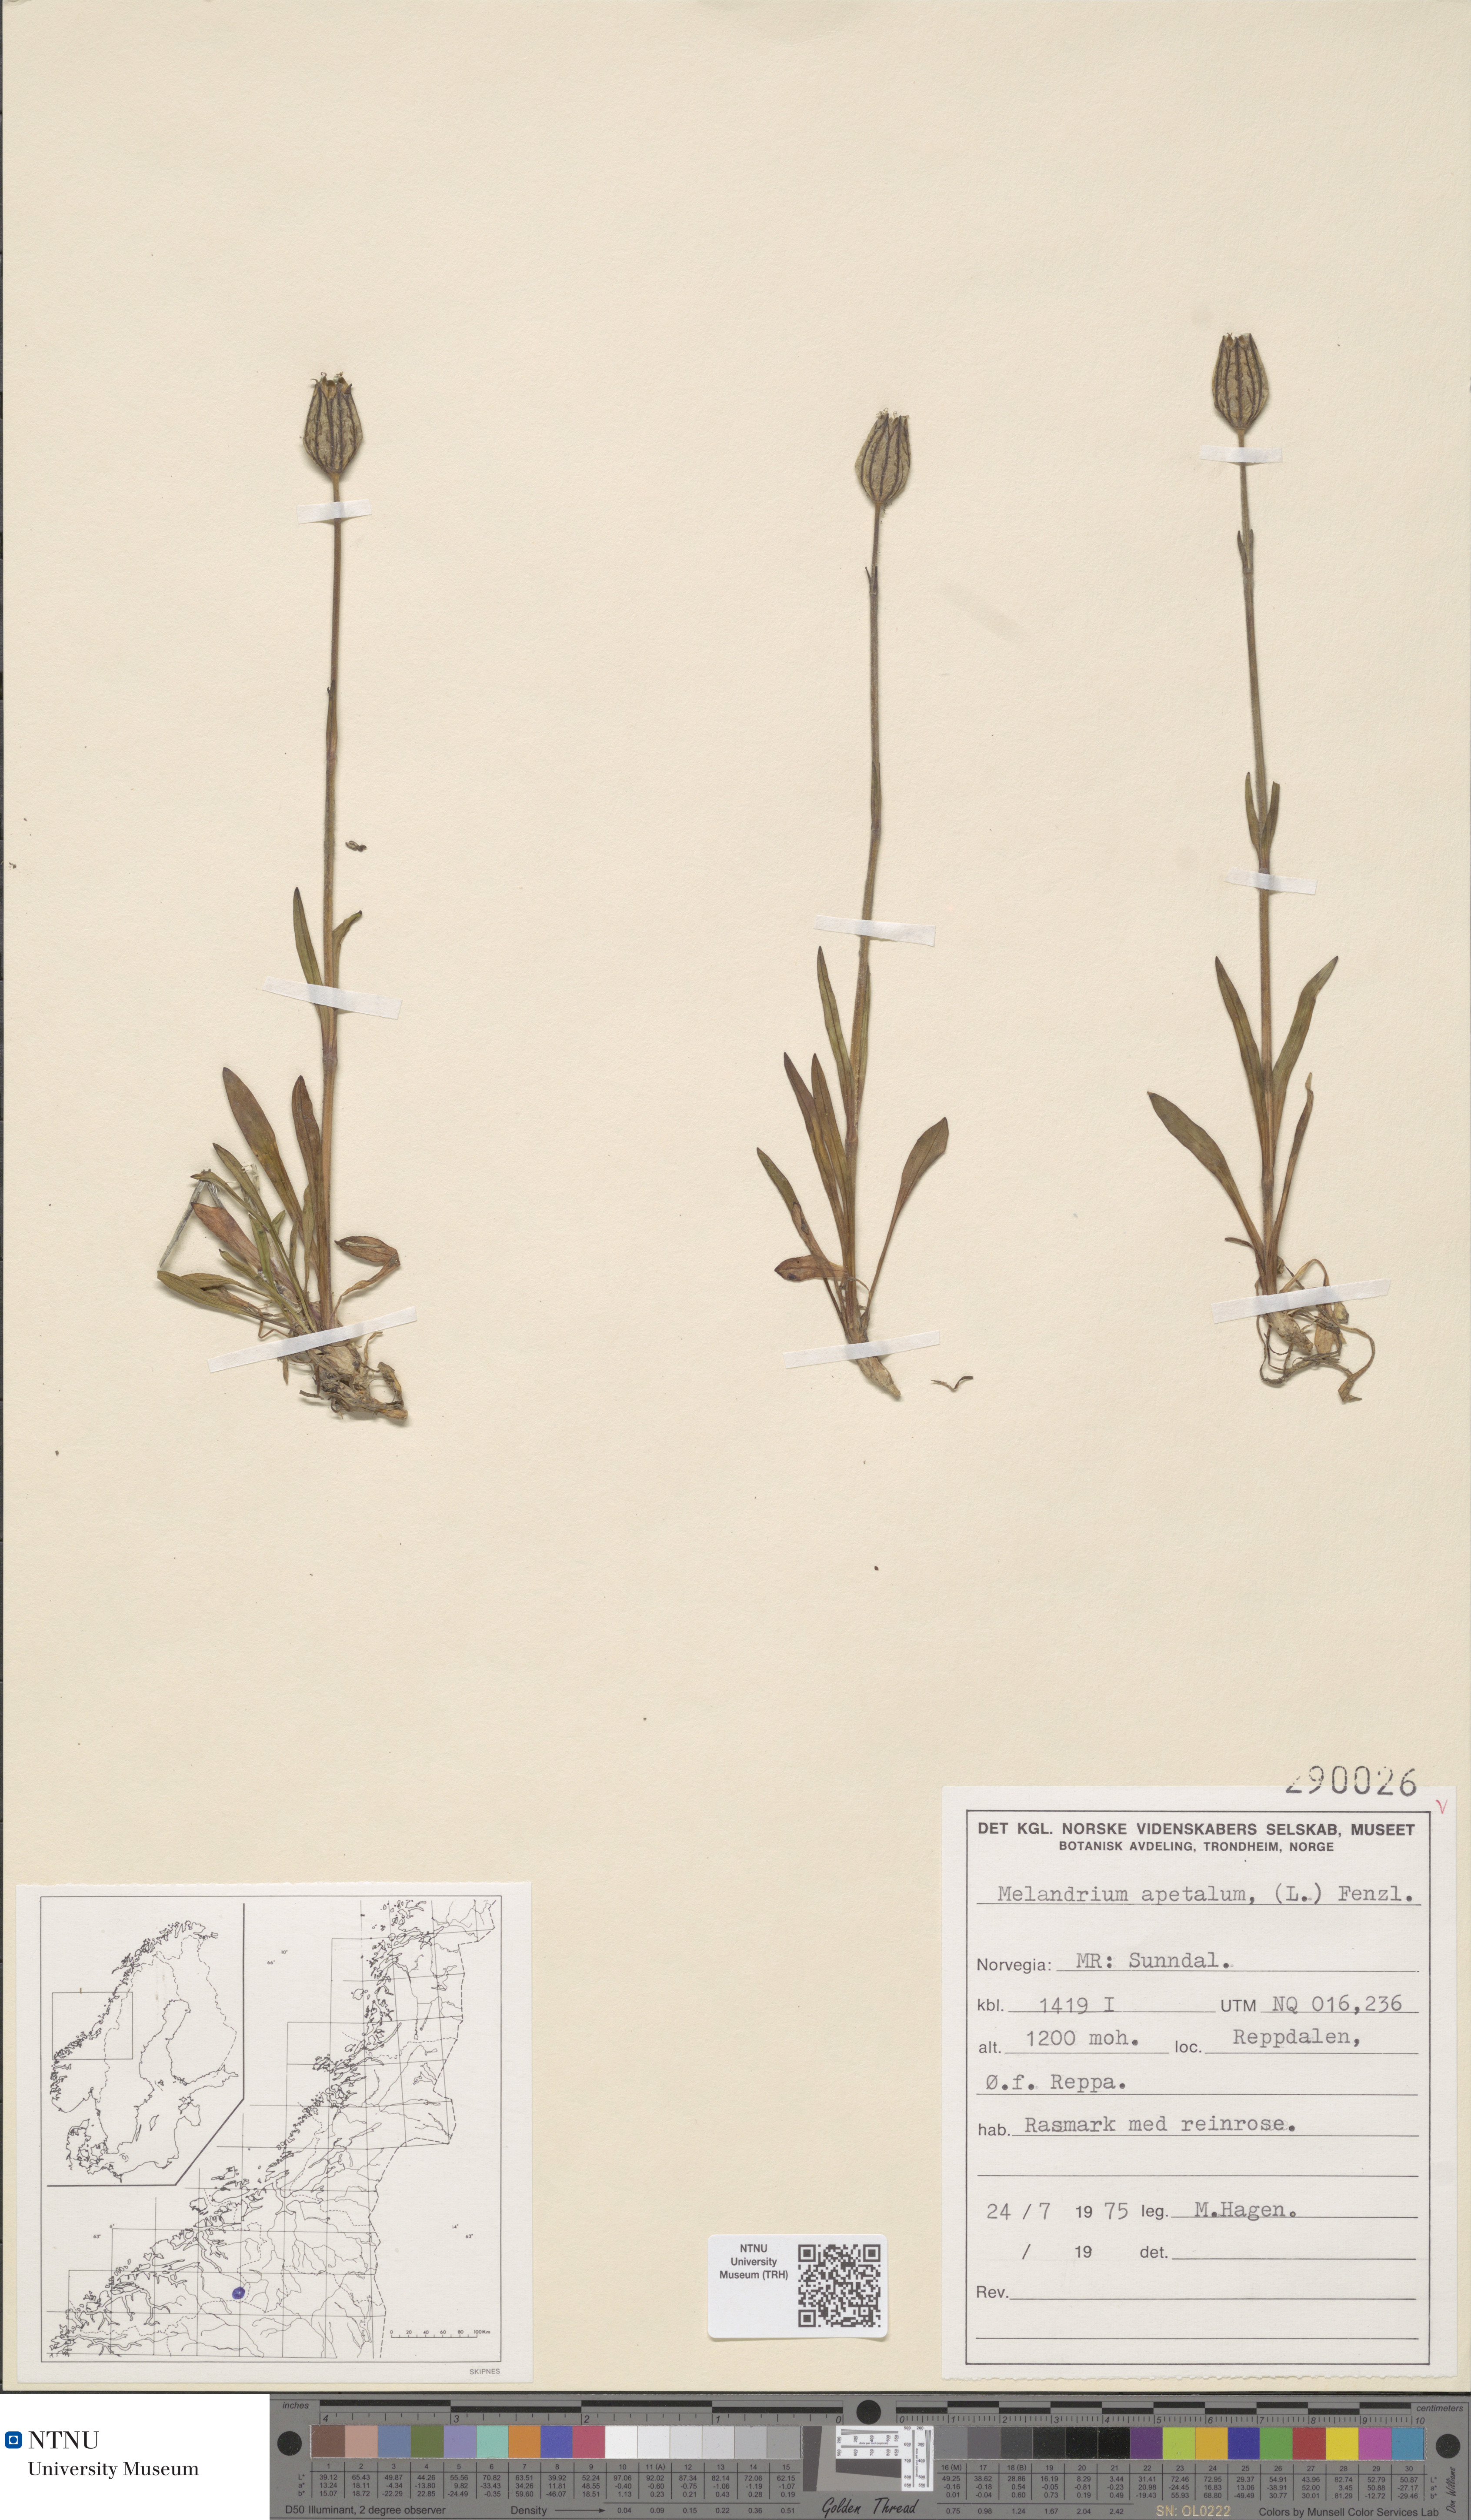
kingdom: Plantae
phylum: Tracheophyta
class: Magnoliopsida
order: Caryophyllales
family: Caryophyllaceae
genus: Silene
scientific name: Silene wahlbergella
